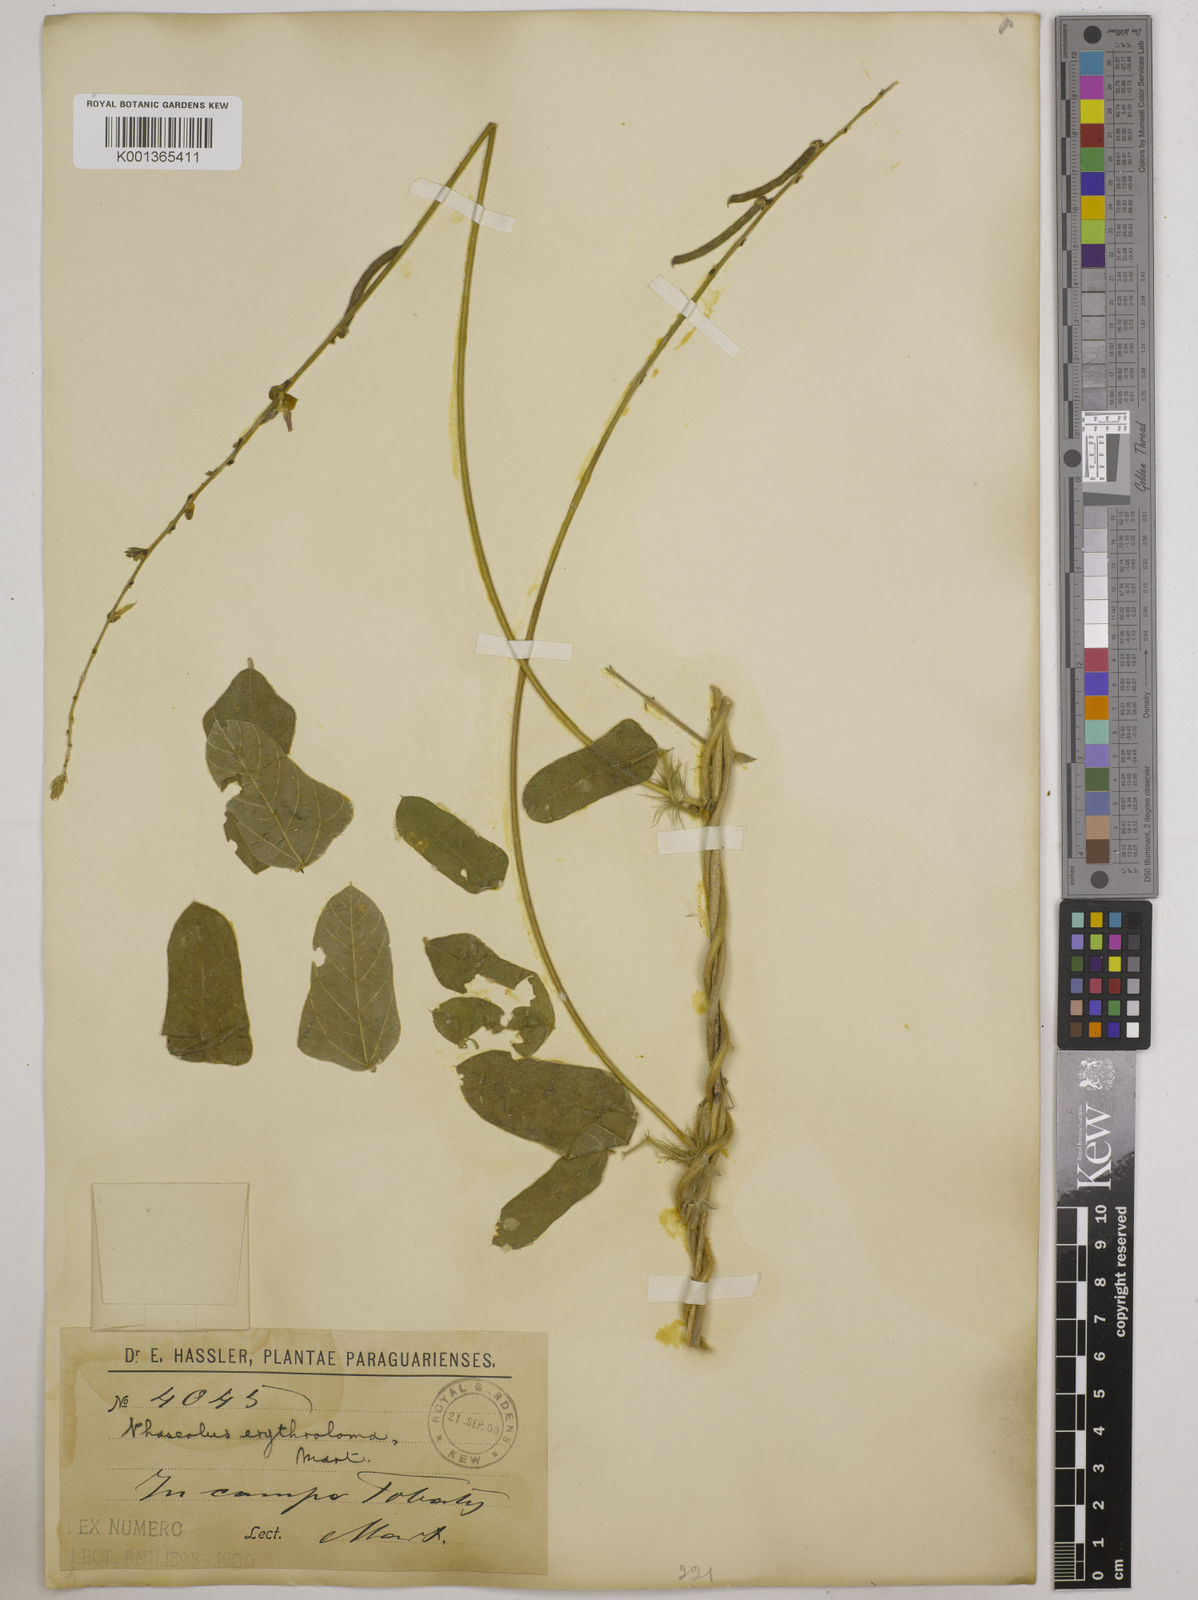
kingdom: Plantae
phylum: Tracheophyta
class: Magnoliopsida
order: Fabales
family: Fabaceae
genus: Macroptilium
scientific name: Macroptilium erythroloma
